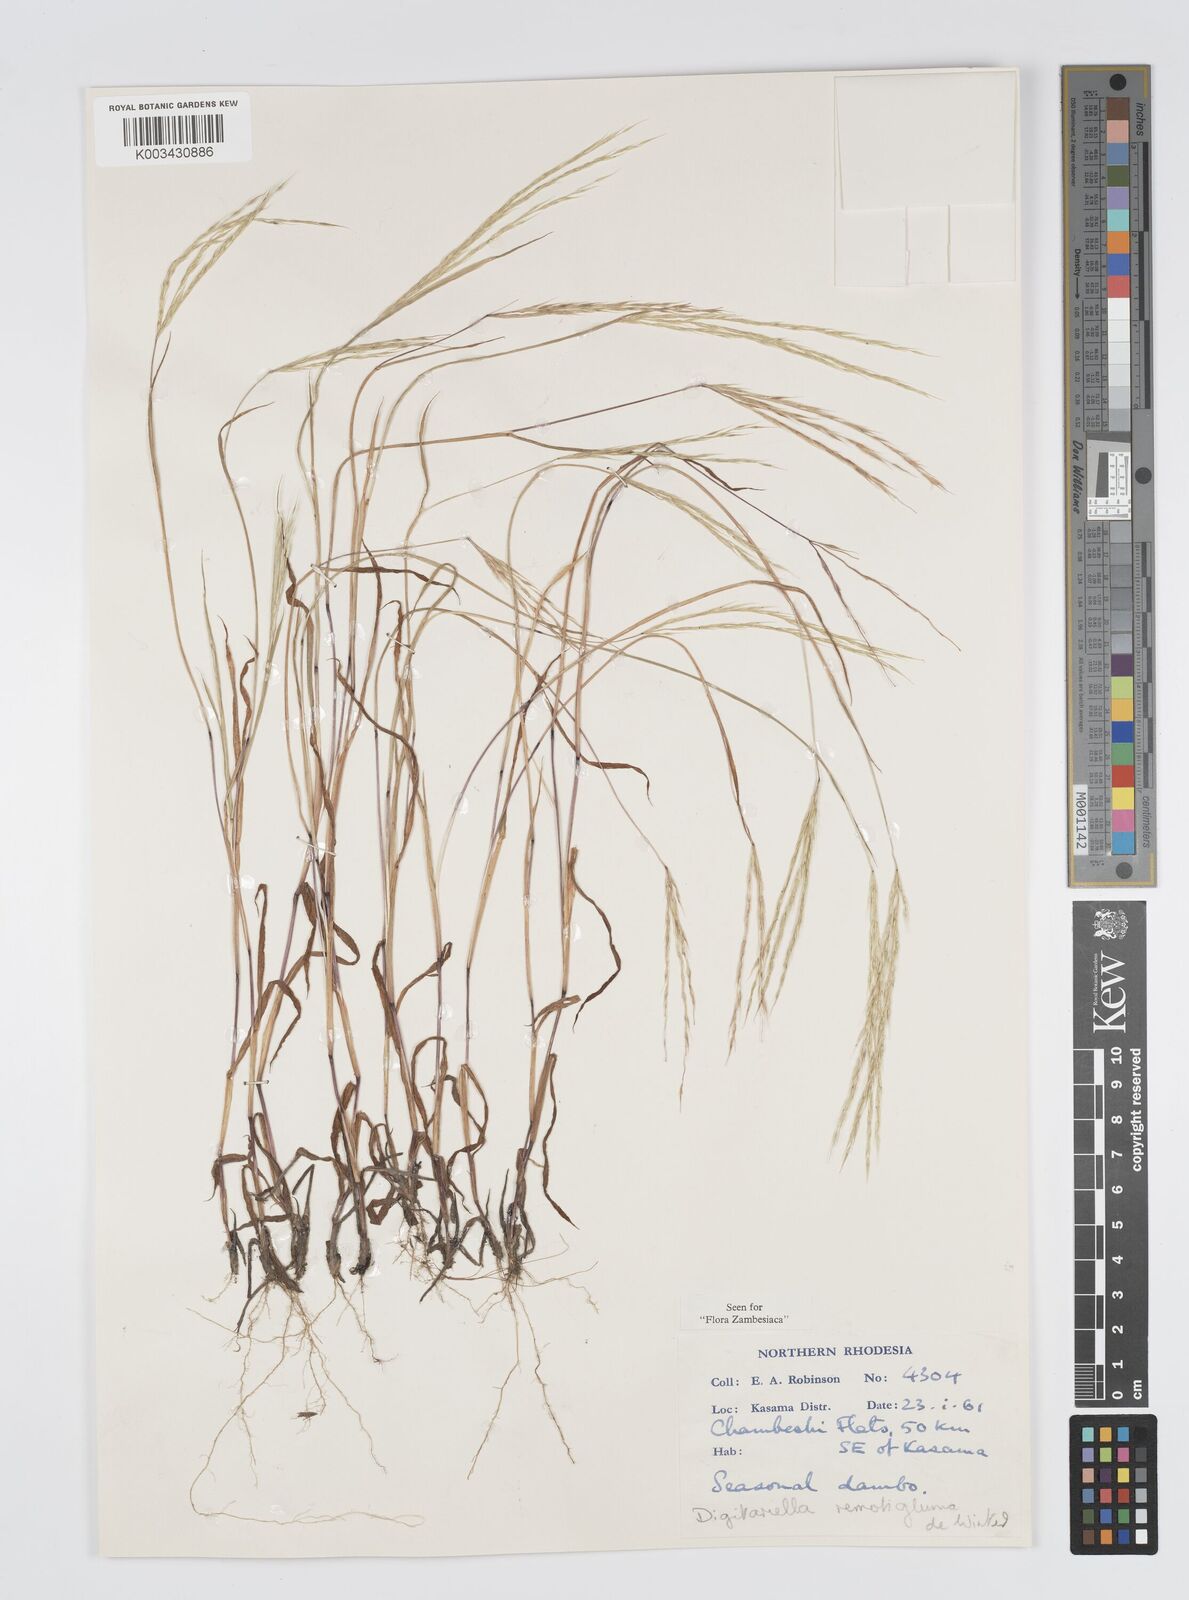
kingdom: Plantae
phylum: Tracheophyta
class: Liliopsida
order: Poales
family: Poaceae
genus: Digitaria
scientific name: Digitaria remotigluma
